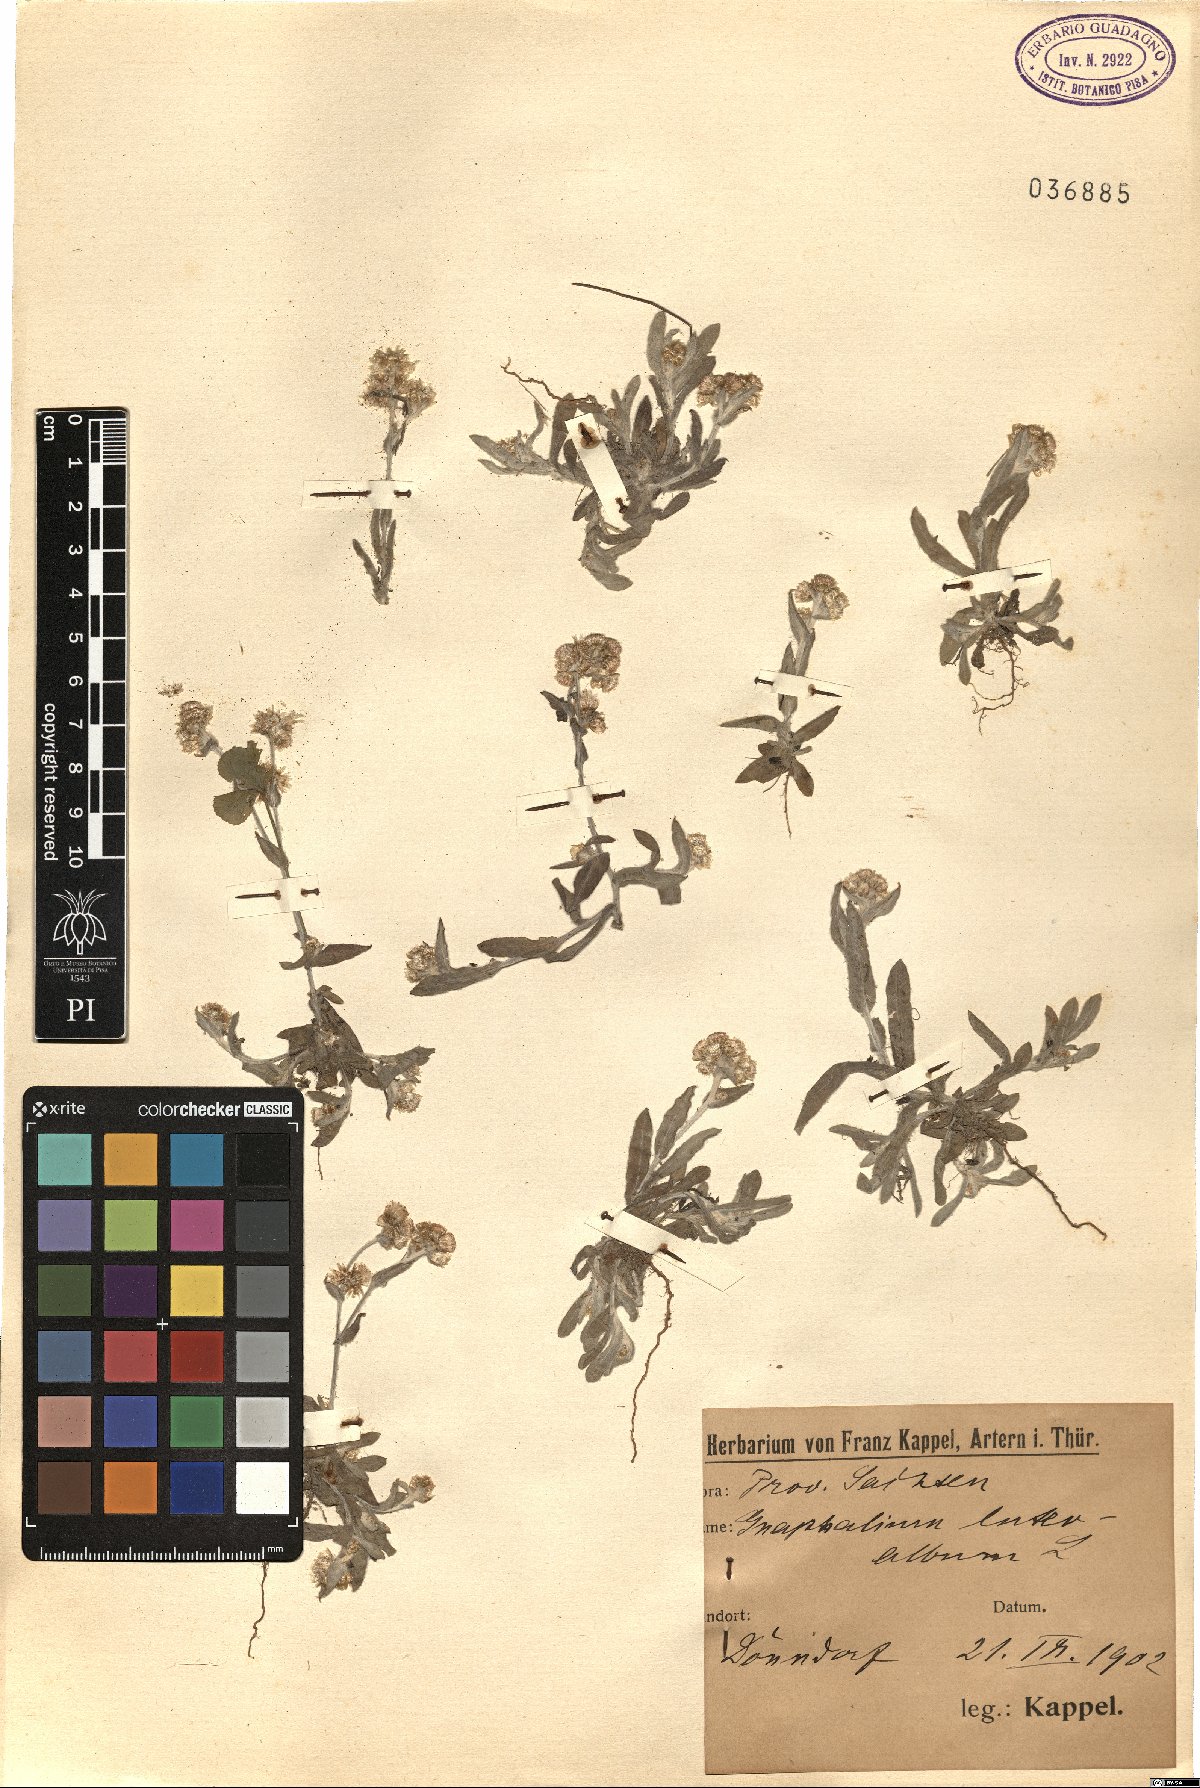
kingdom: Plantae
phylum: Tracheophyta
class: Magnoliopsida
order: Asterales
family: Asteraceae
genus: Helichrysum
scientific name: Helichrysum luteoalbum
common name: Daisy
